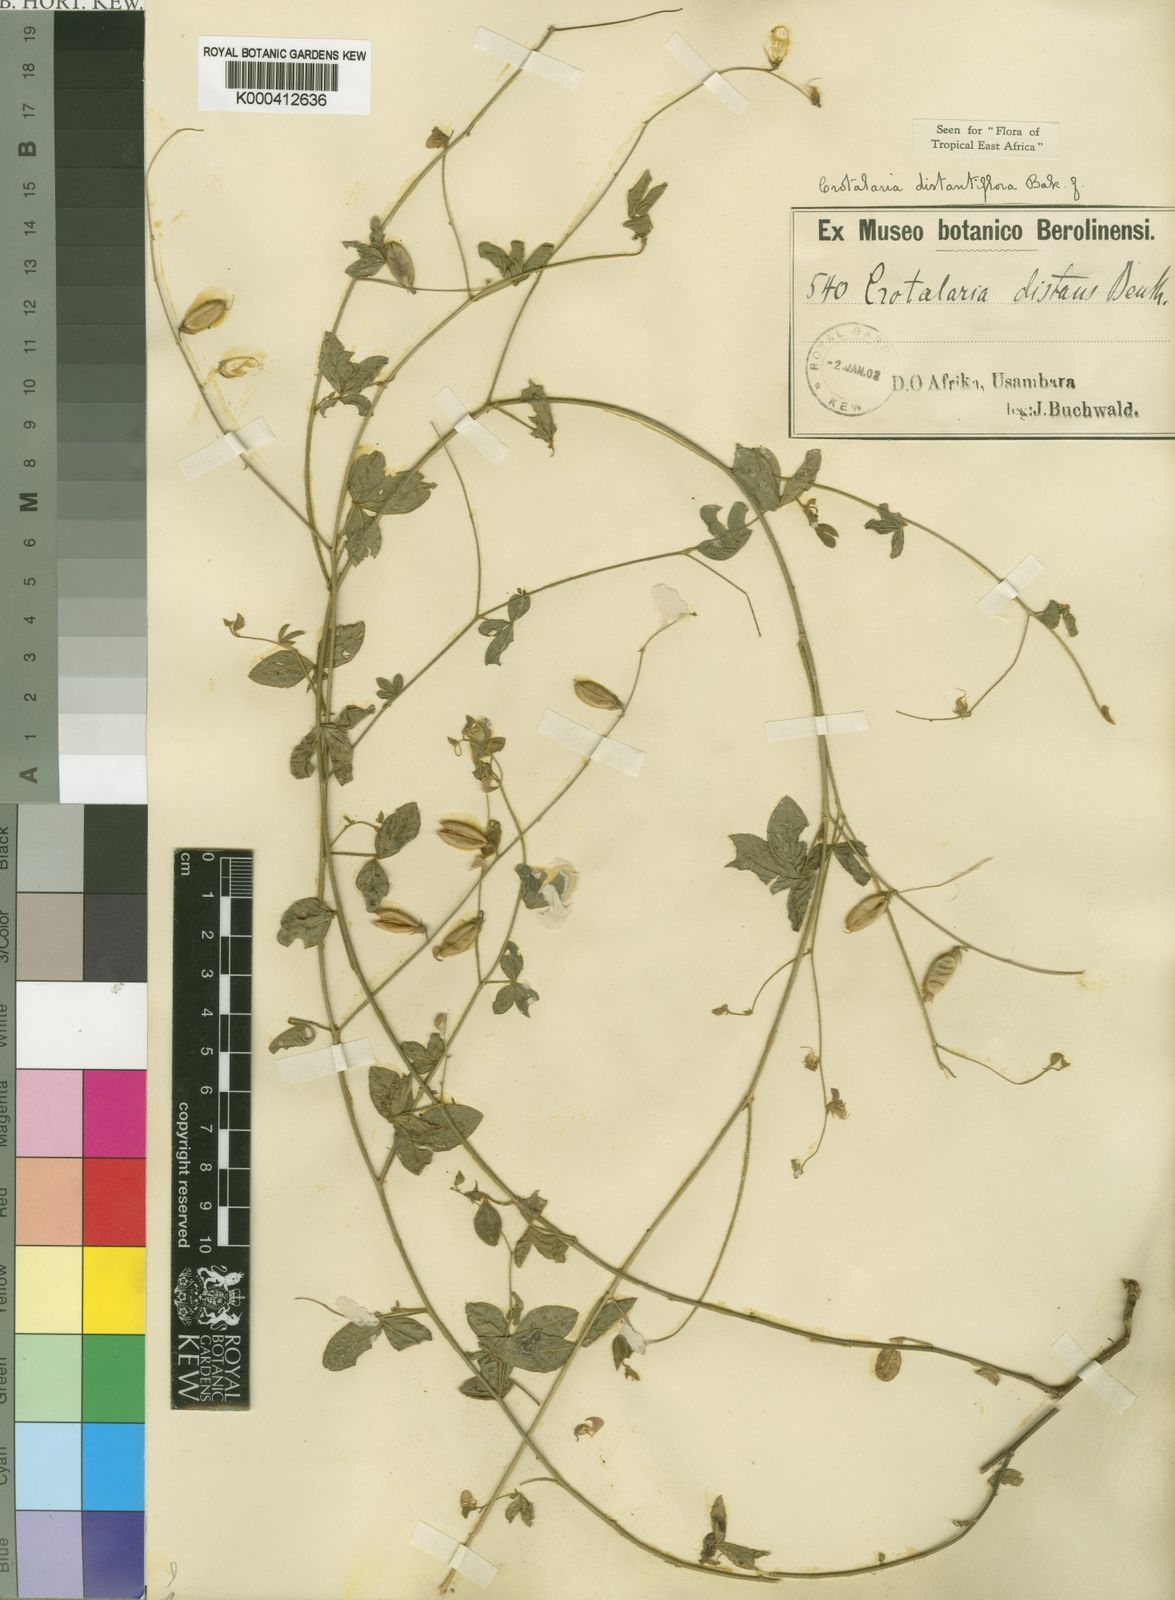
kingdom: Plantae
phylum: Tracheophyta
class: Magnoliopsida
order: Fabales
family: Fabaceae
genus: Crotalaria
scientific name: Crotalaria distantiflora
